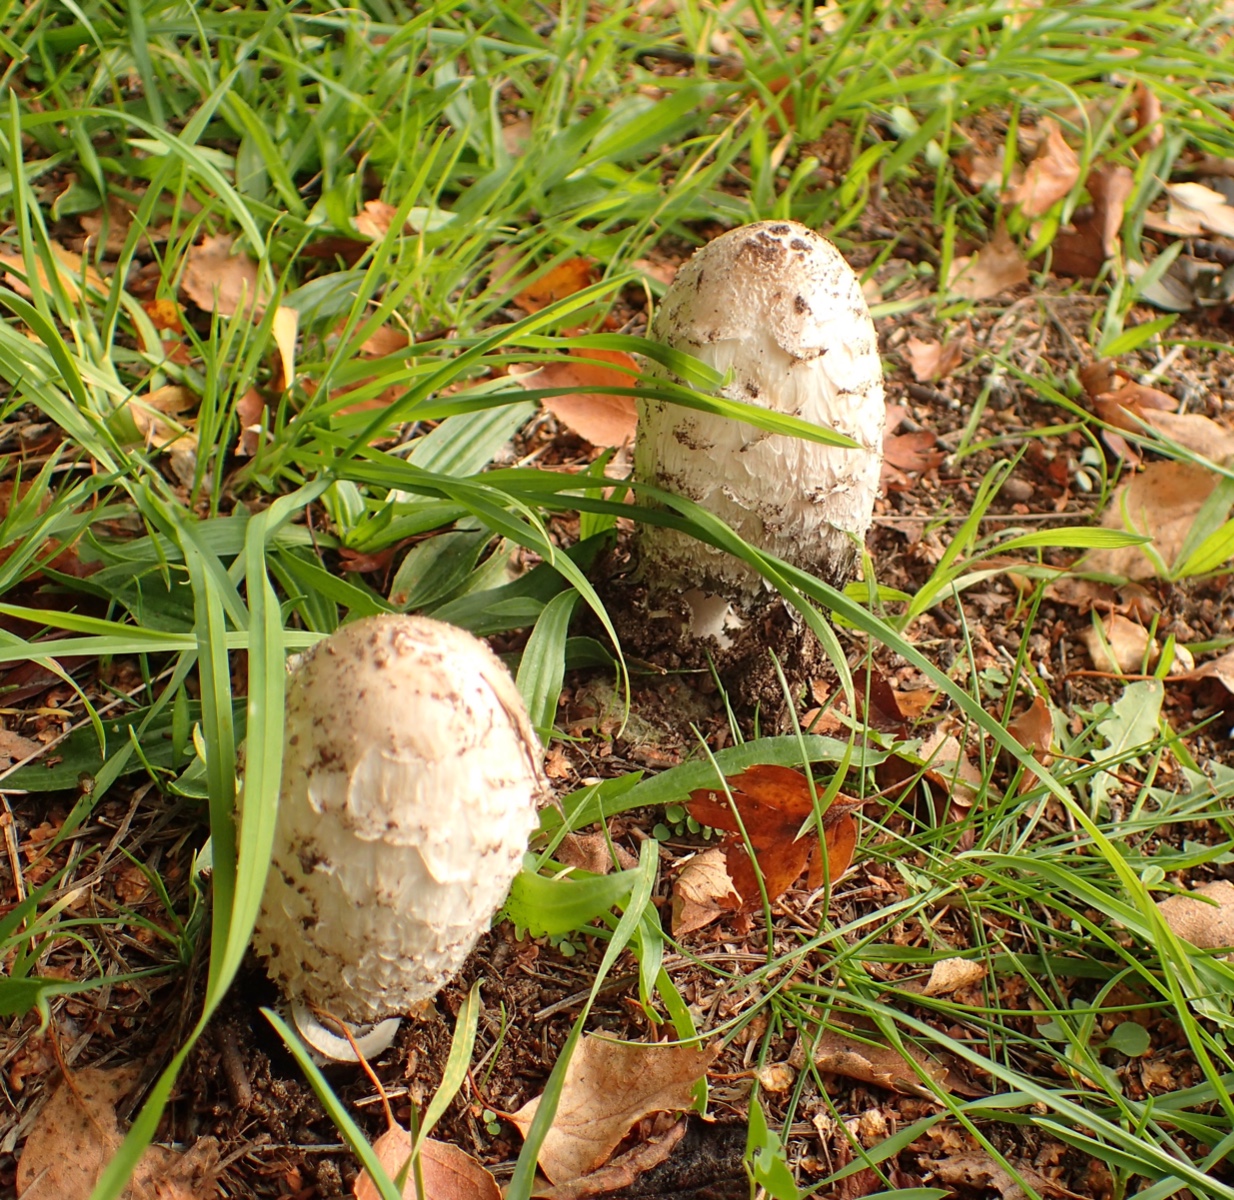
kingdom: Fungi
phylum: Basidiomycota
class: Agaricomycetes
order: Agaricales
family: Agaricaceae
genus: Coprinus
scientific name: Coprinus comatus
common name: stor parykhat
